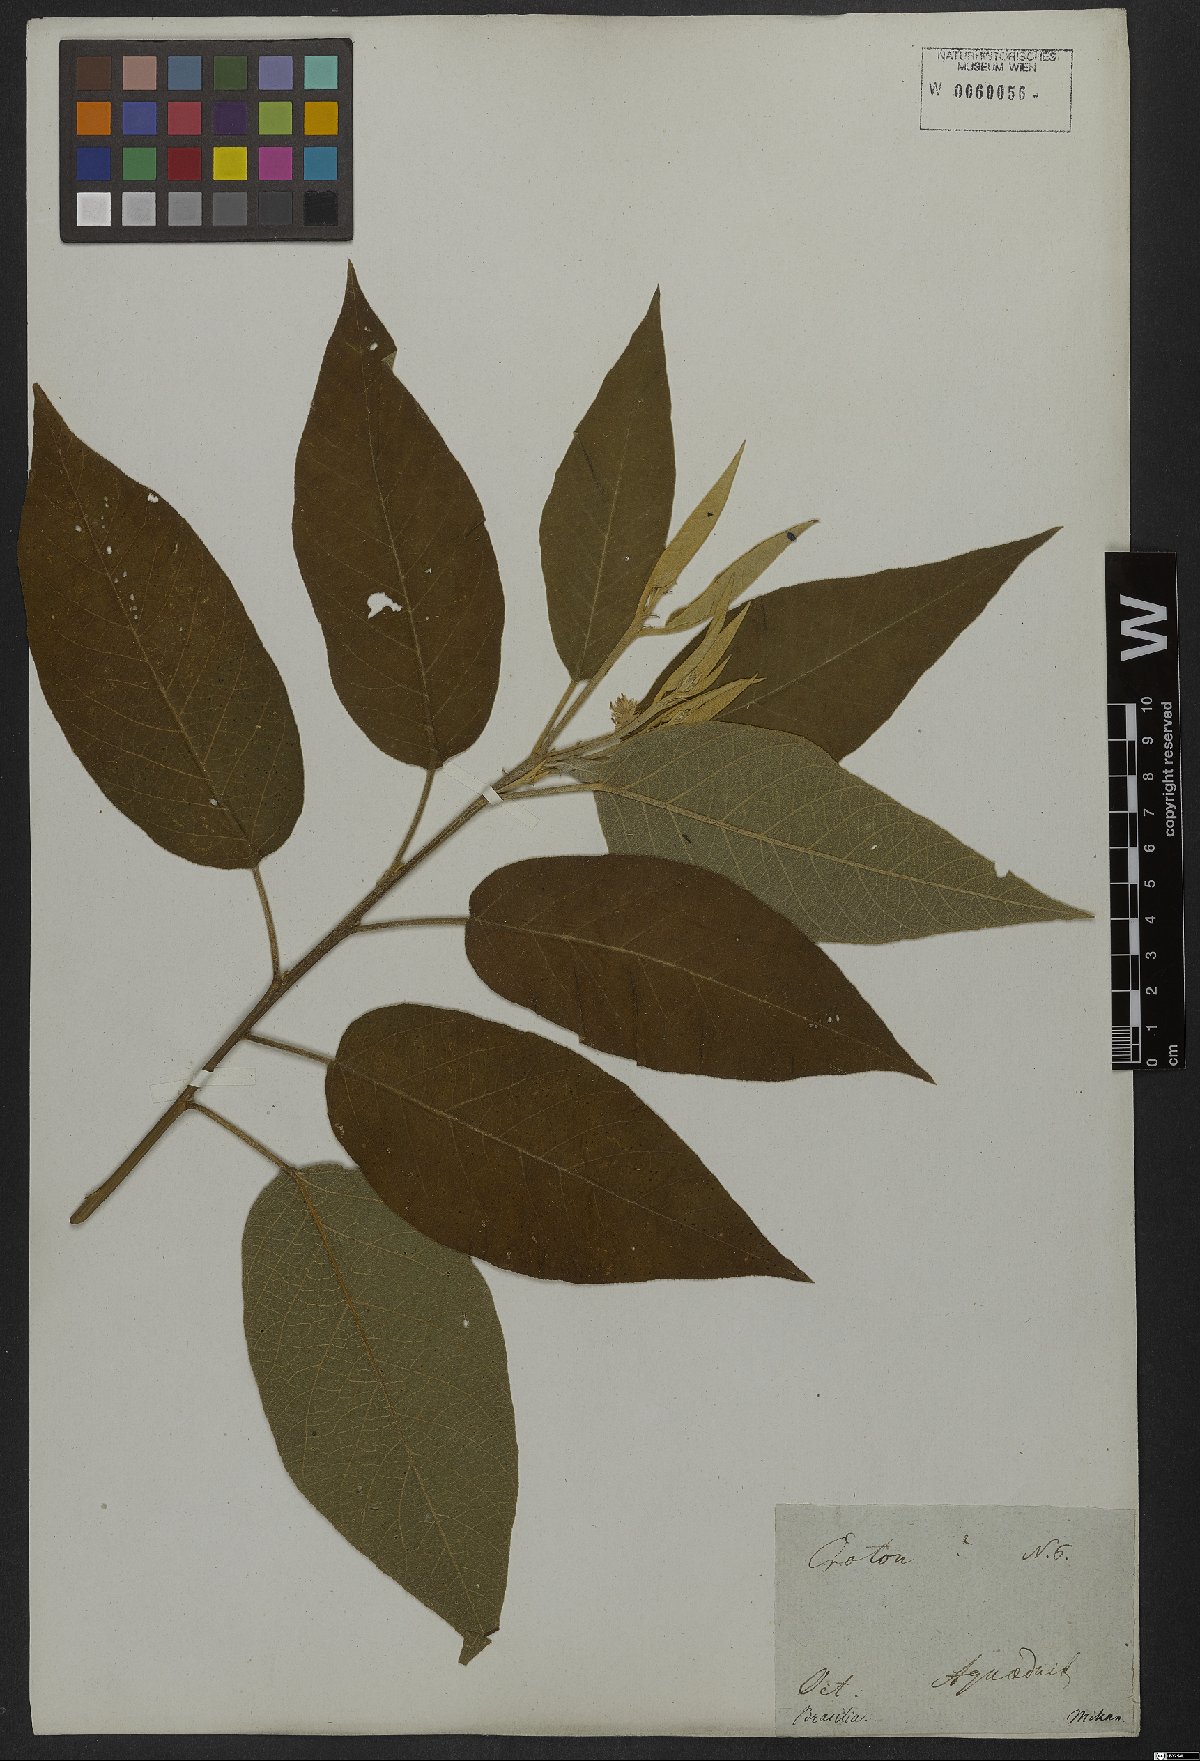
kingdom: Plantae
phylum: Tracheophyta
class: Magnoliopsida
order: Malpighiales
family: Euphorbiaceae
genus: Croton
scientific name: Croton compressus
